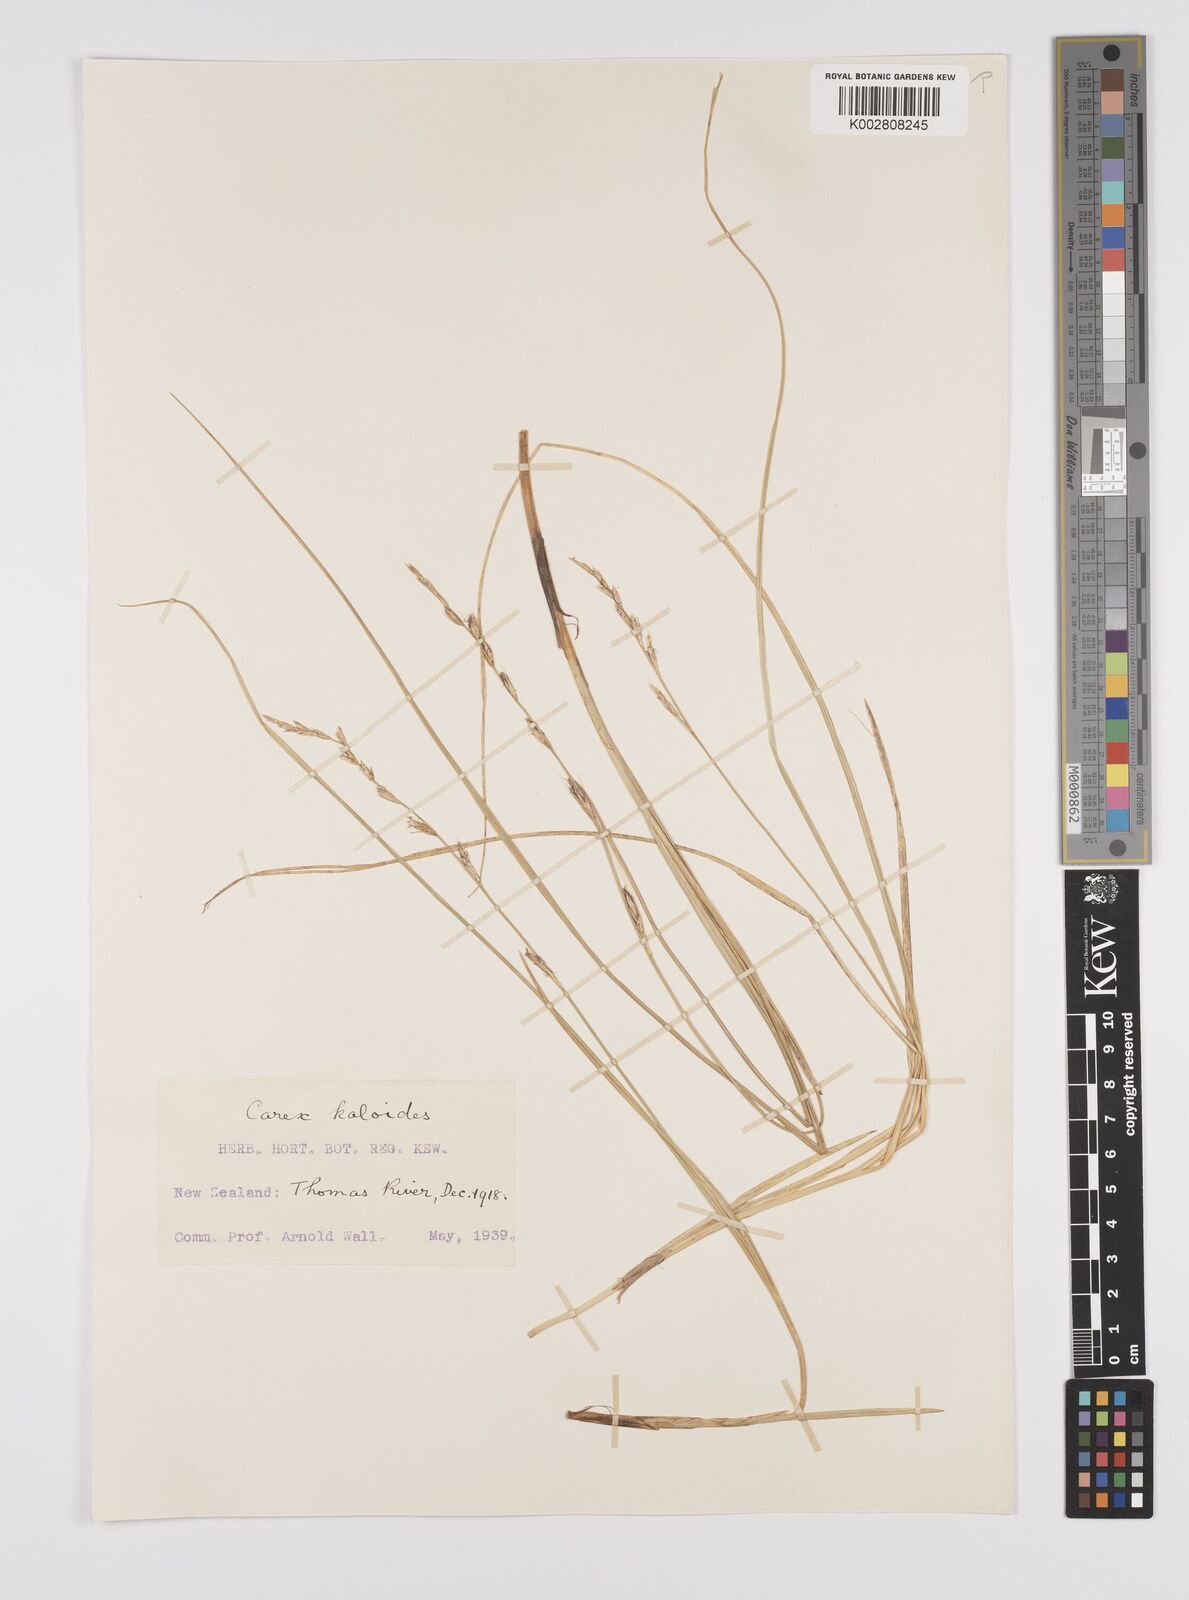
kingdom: Plantae
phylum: Tracheophyta
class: Liliopsida
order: Poales
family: Cyperaceae
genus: Carex
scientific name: Carex kaloides
